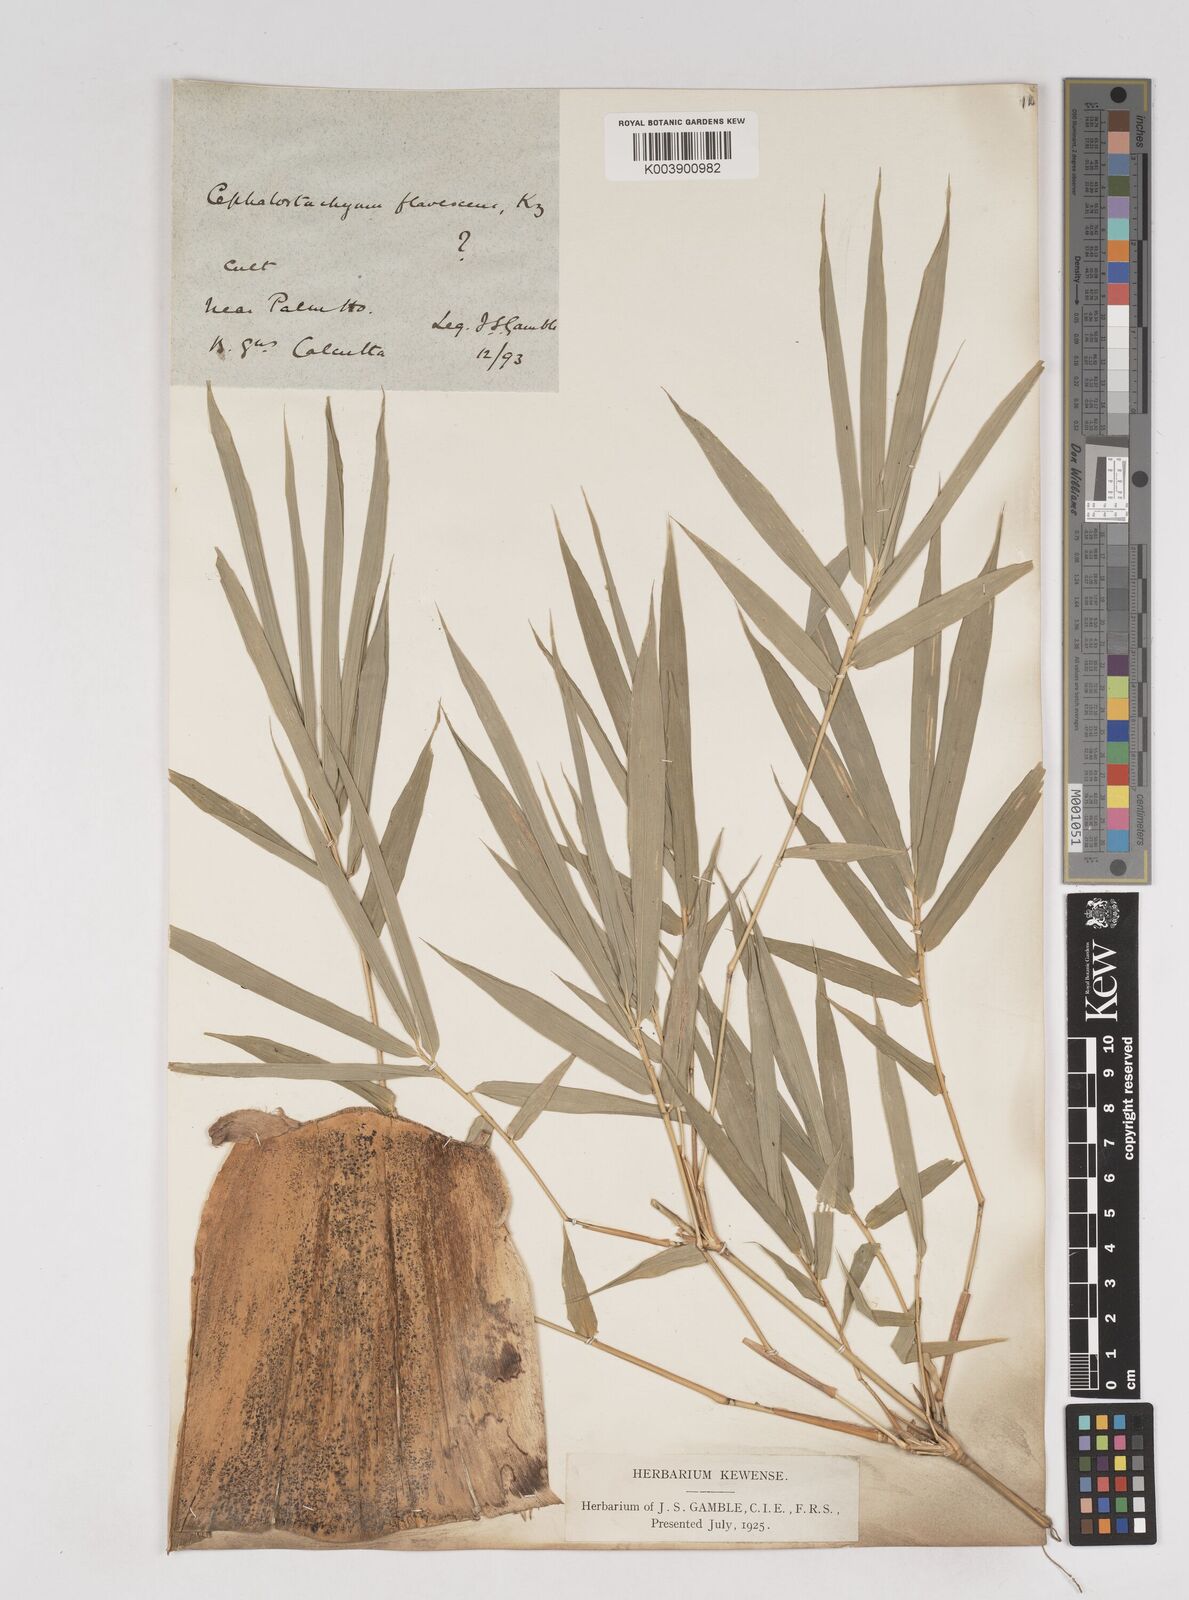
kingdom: Plantae
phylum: Tracheophyta
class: Liliopsida
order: Poales
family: Poaceae
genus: Cephalostachyum
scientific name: Cephalostachyum flavescens
